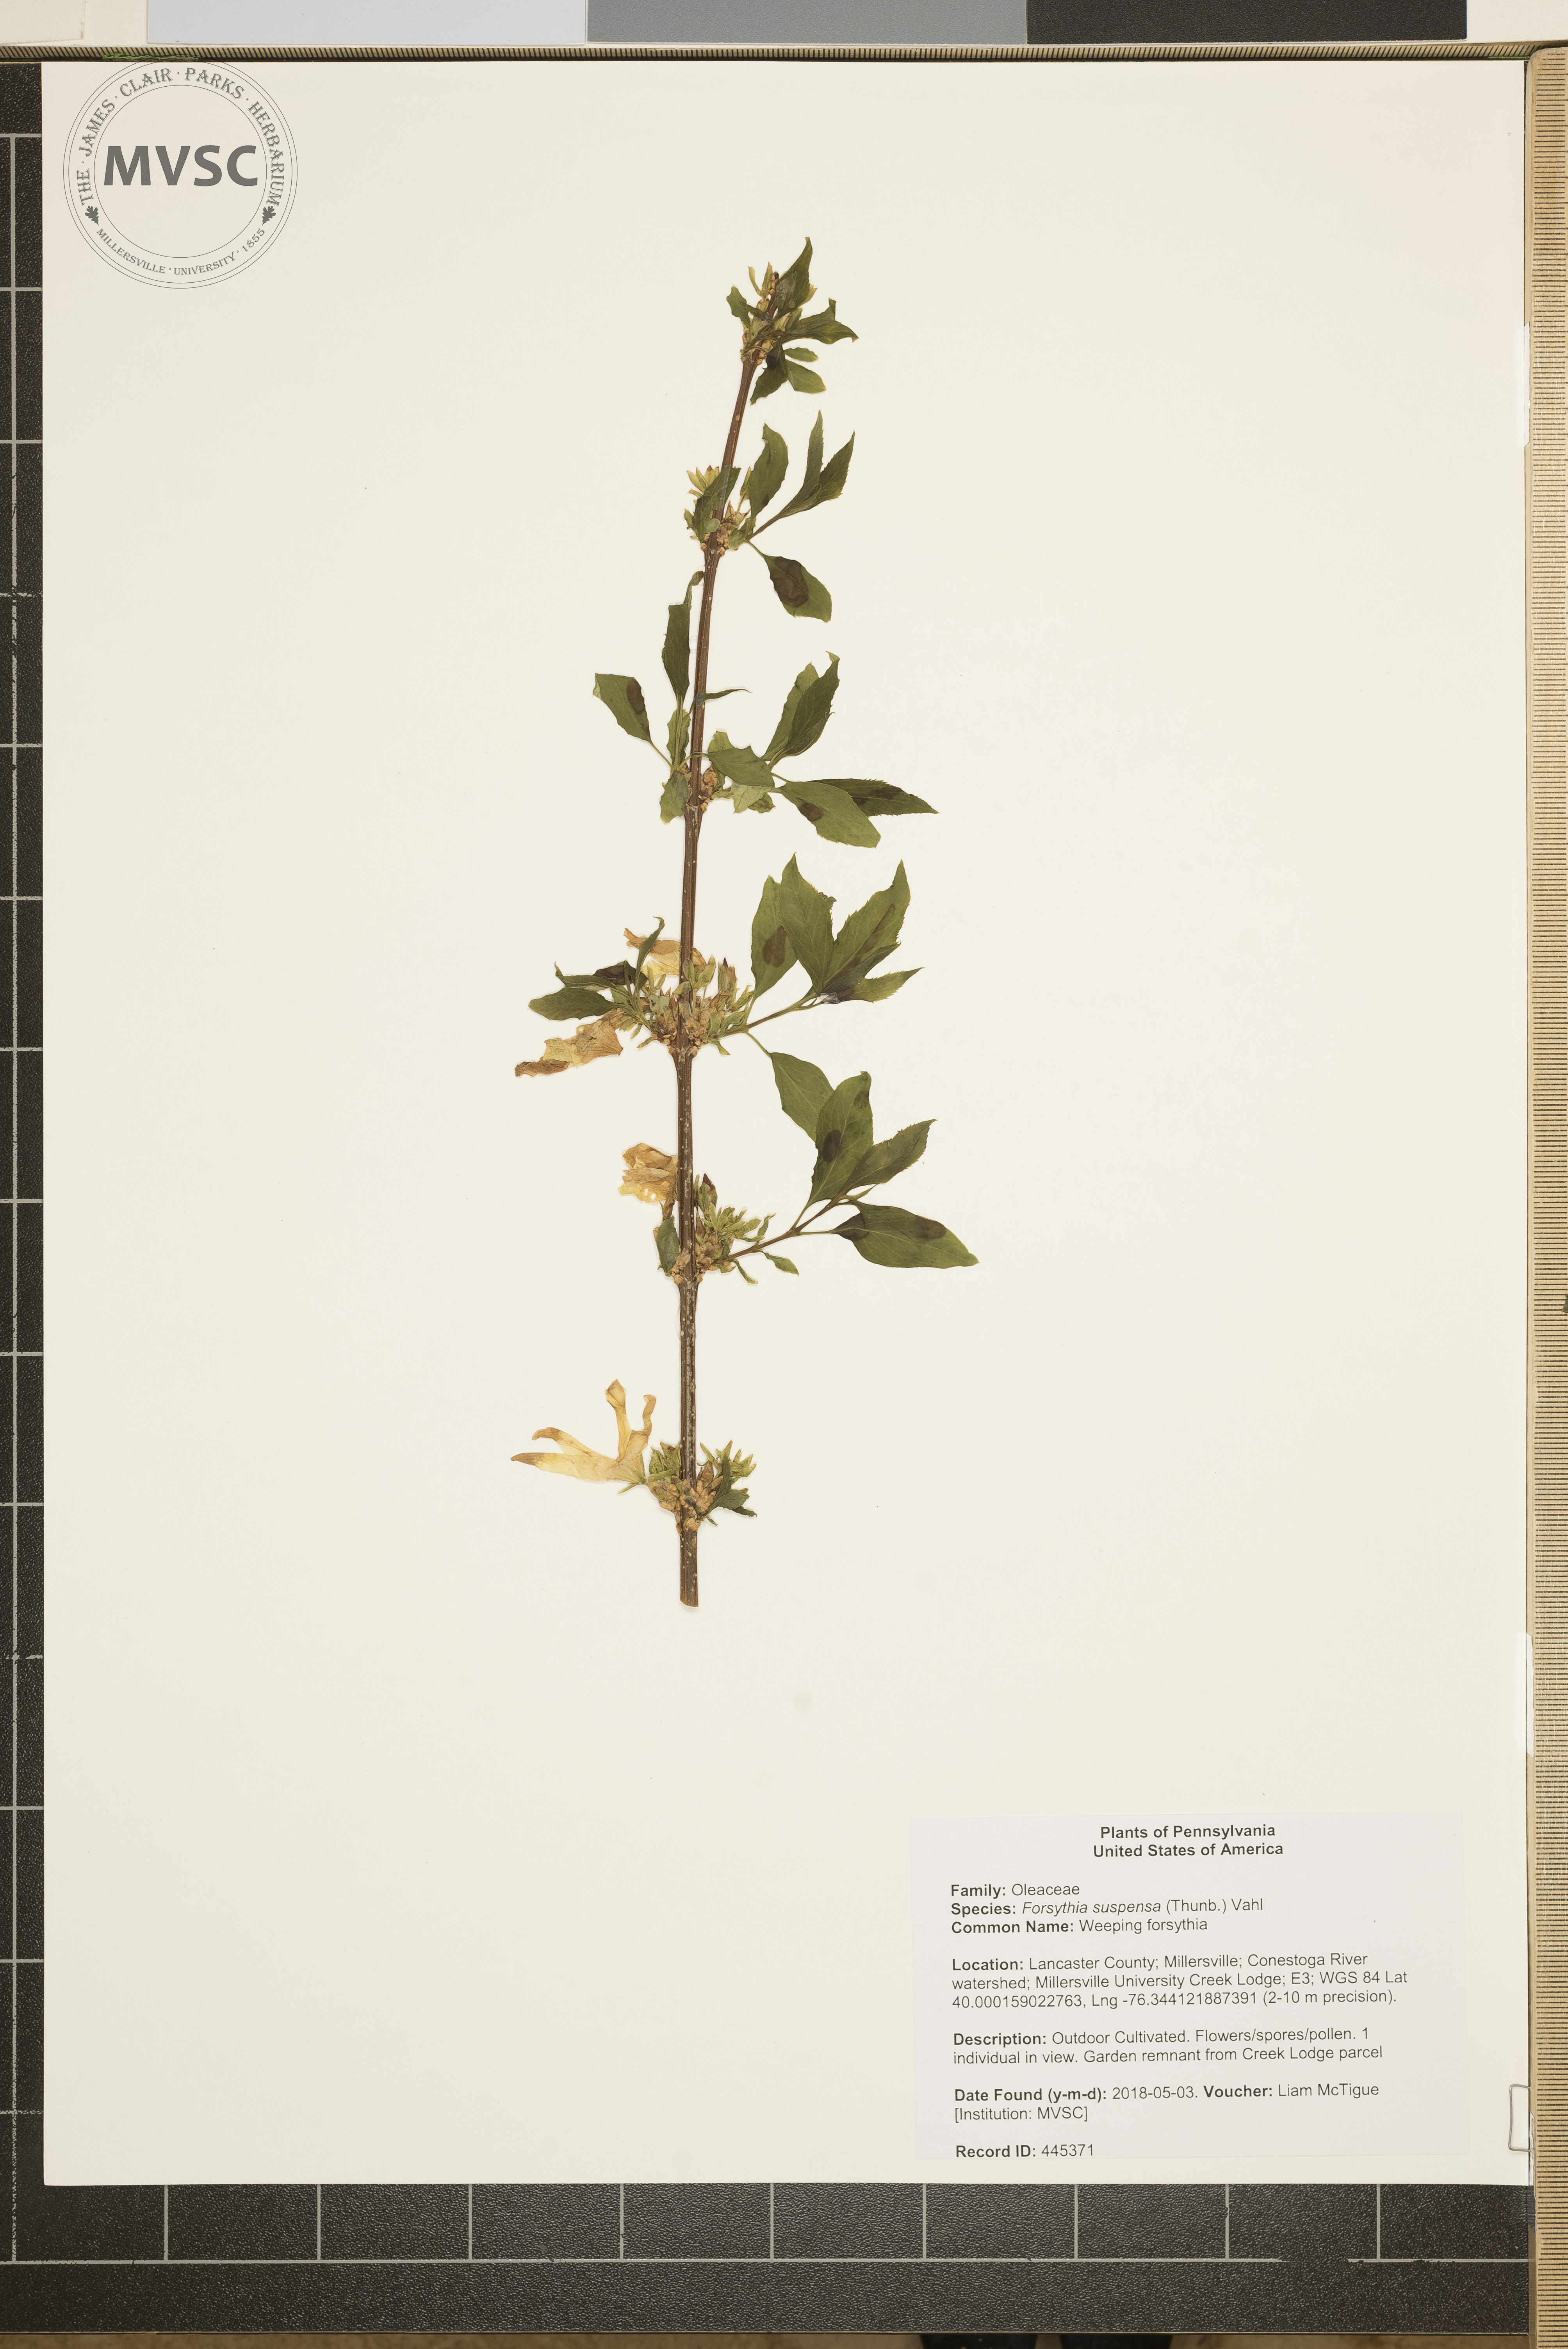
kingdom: Plantae
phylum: Tracheophyta
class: Magnoliopsida
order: Lamiales
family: Oleaceae
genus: Forsythia
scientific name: Forsythia suspensa
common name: Weeping forsythia
